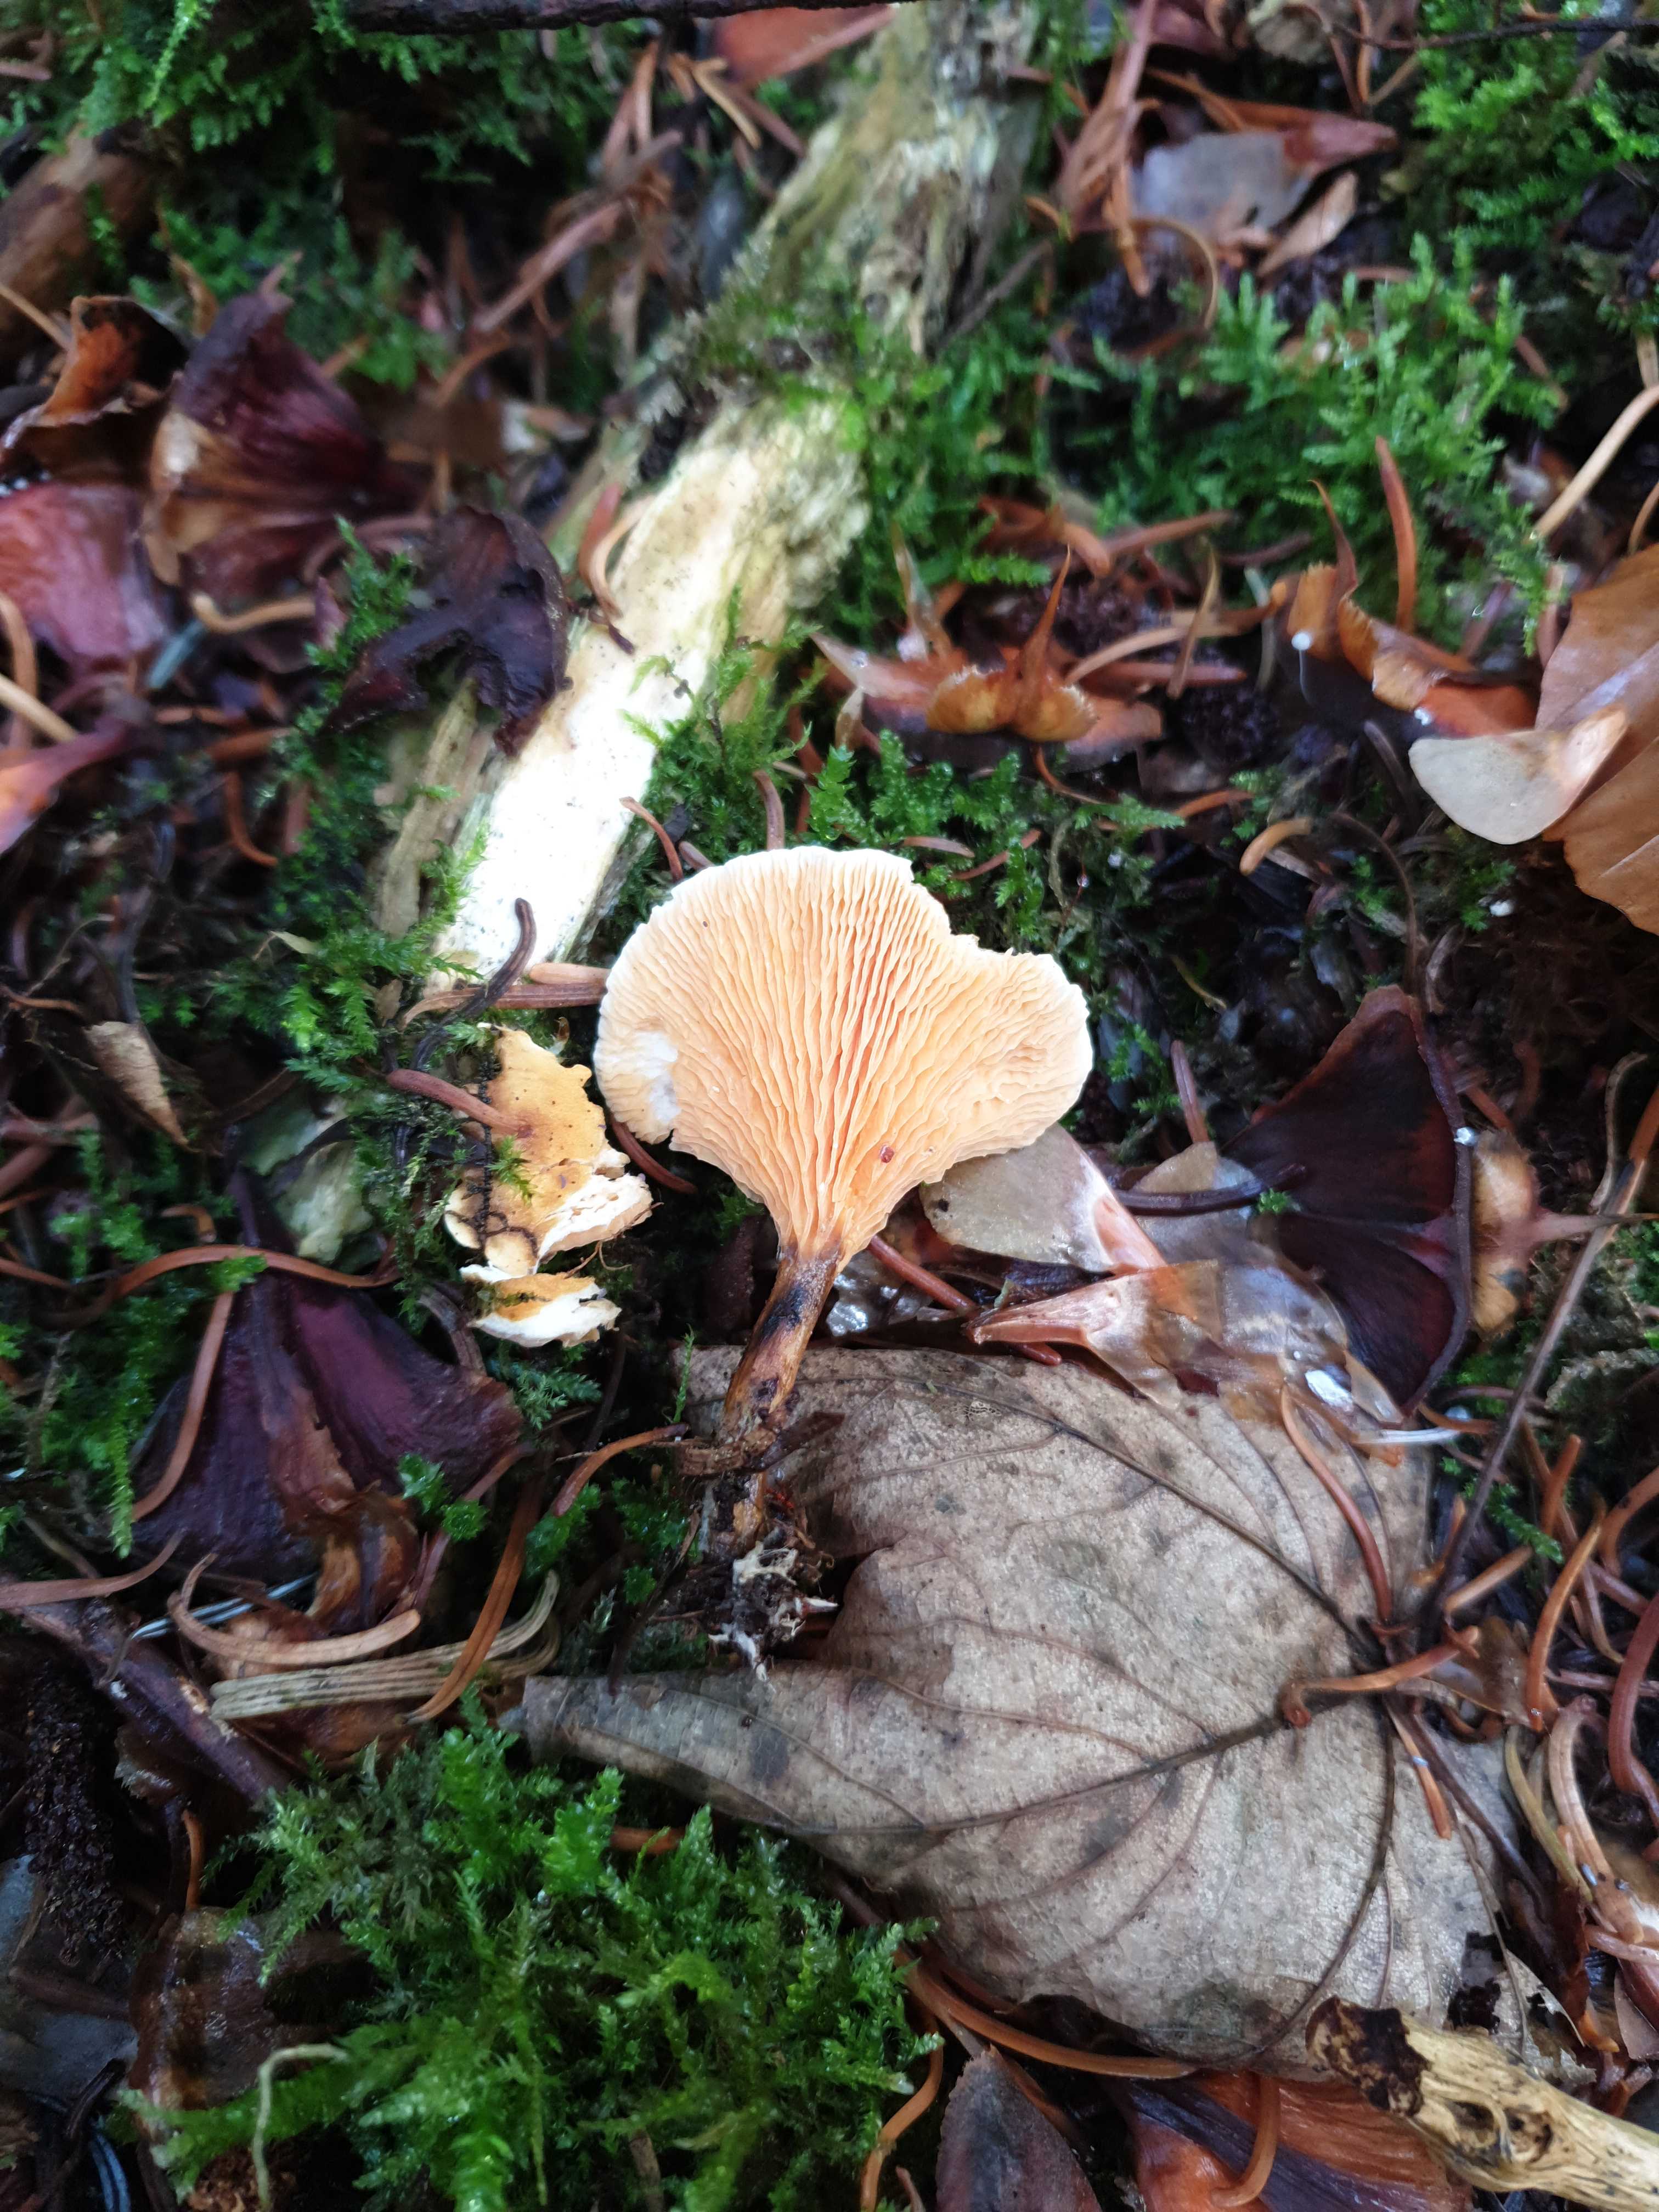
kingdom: Fungi
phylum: Basidiomycota
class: Agaricomycetes
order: Boletales
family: Hygrophoropsidaceae
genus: Hygrophoropsis
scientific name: Hygrophoropsis aurantiaca
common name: almindelig orangekantarel
